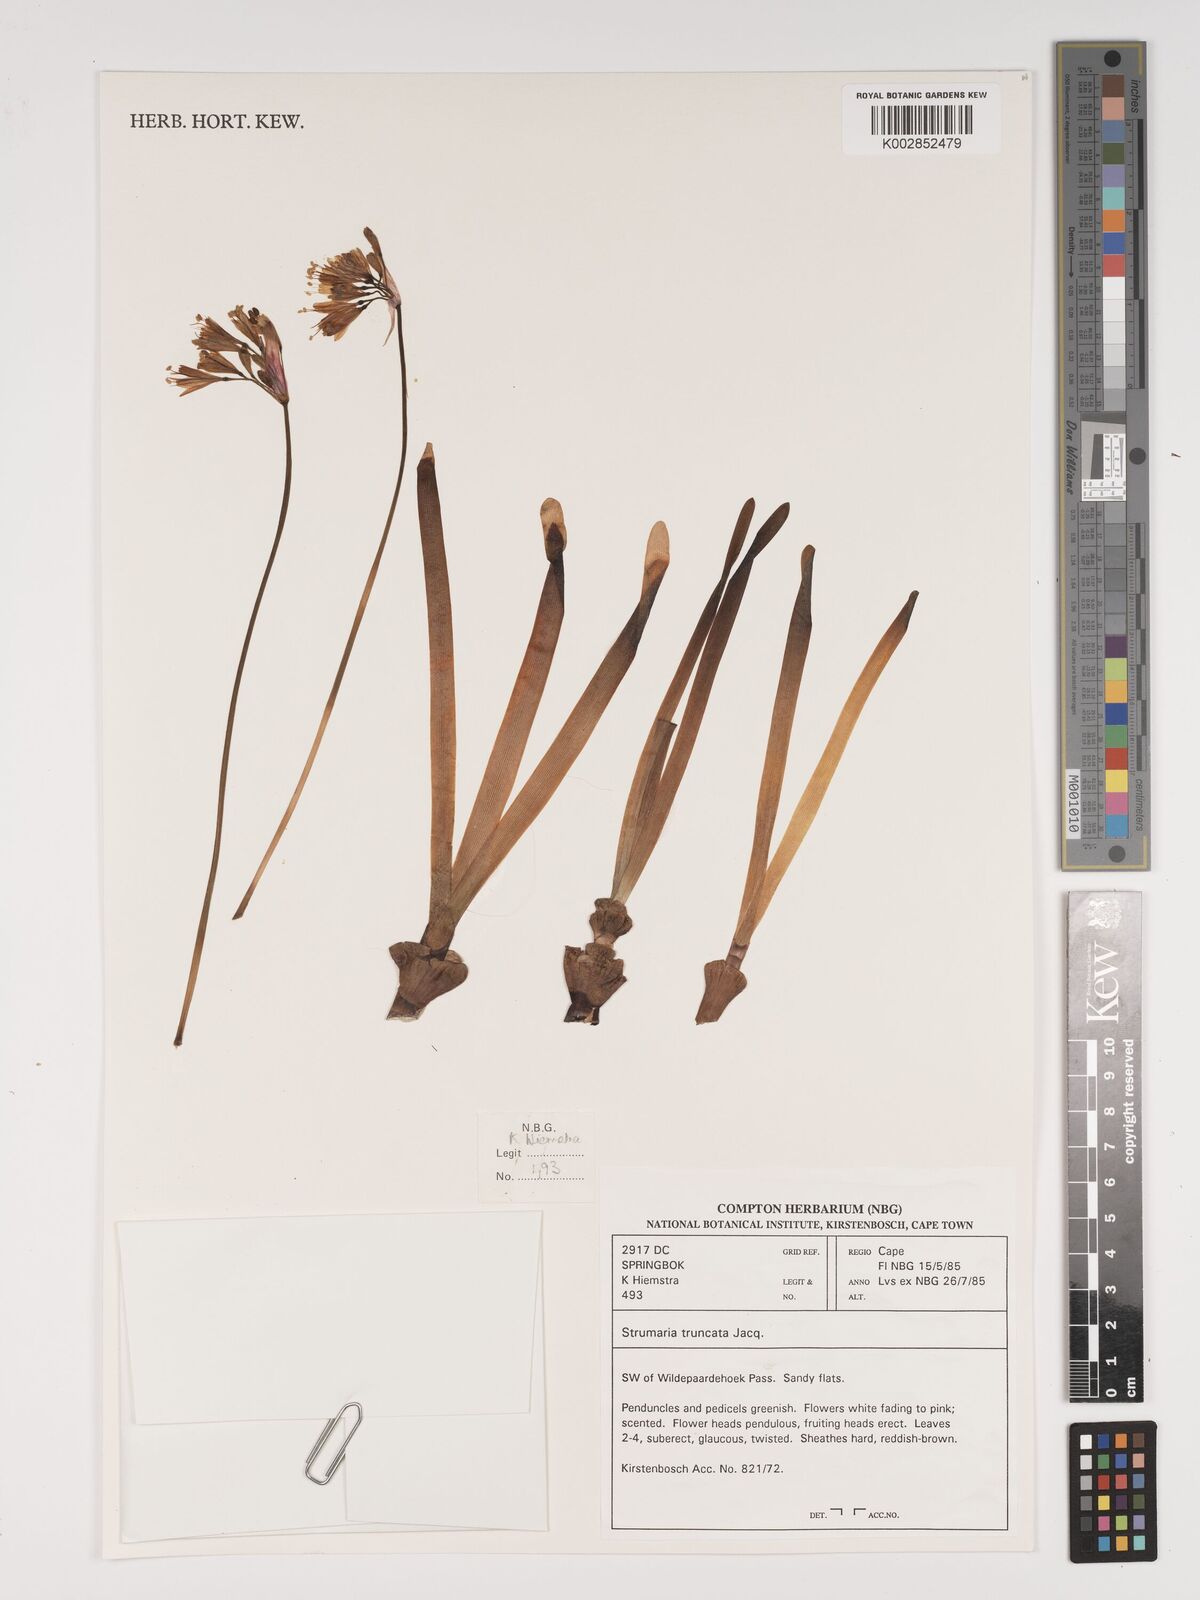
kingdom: Plantae
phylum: Tracheophyta
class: Liliopsida
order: Asparagales
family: Amaryllidaceae
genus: Strumaria
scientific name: Strumaria truncata
